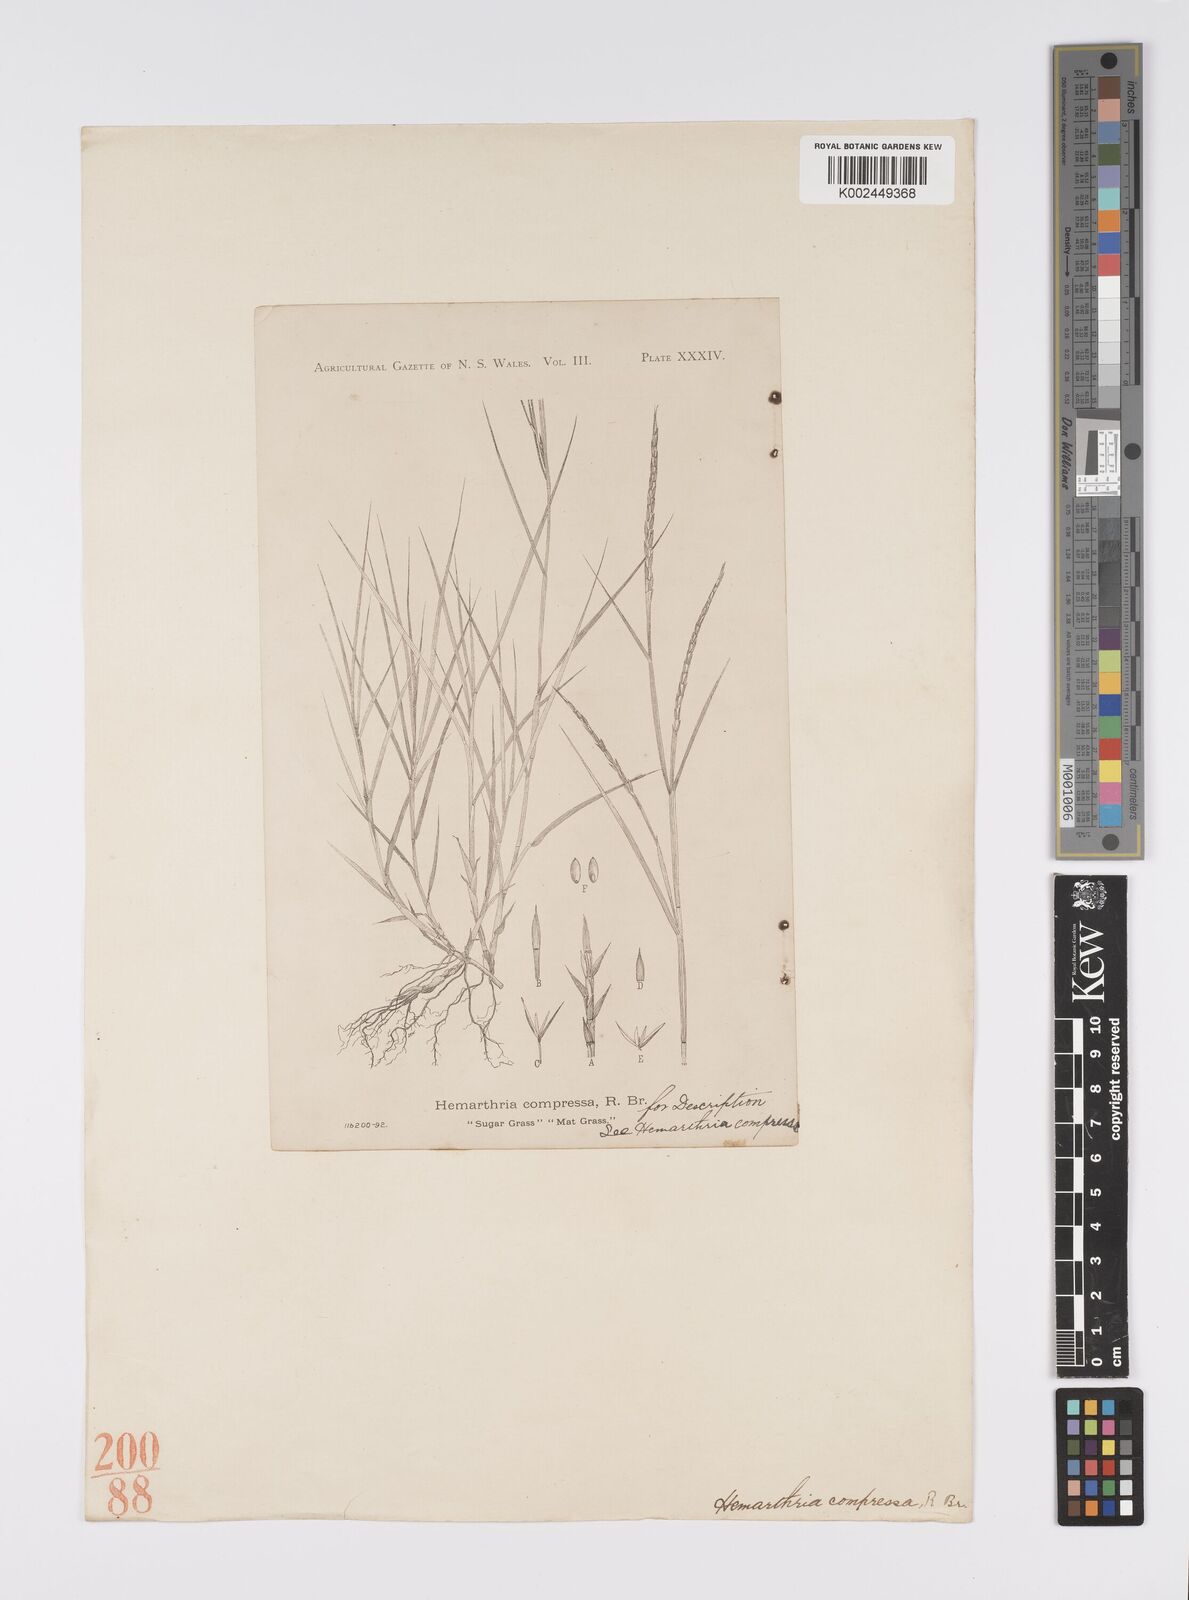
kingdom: Plantae
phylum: Tracheophyta
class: Liliopsida
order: Poales
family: Poaceae
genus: Hemarthria
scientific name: Hemarthria uncinata
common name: Matgrass
